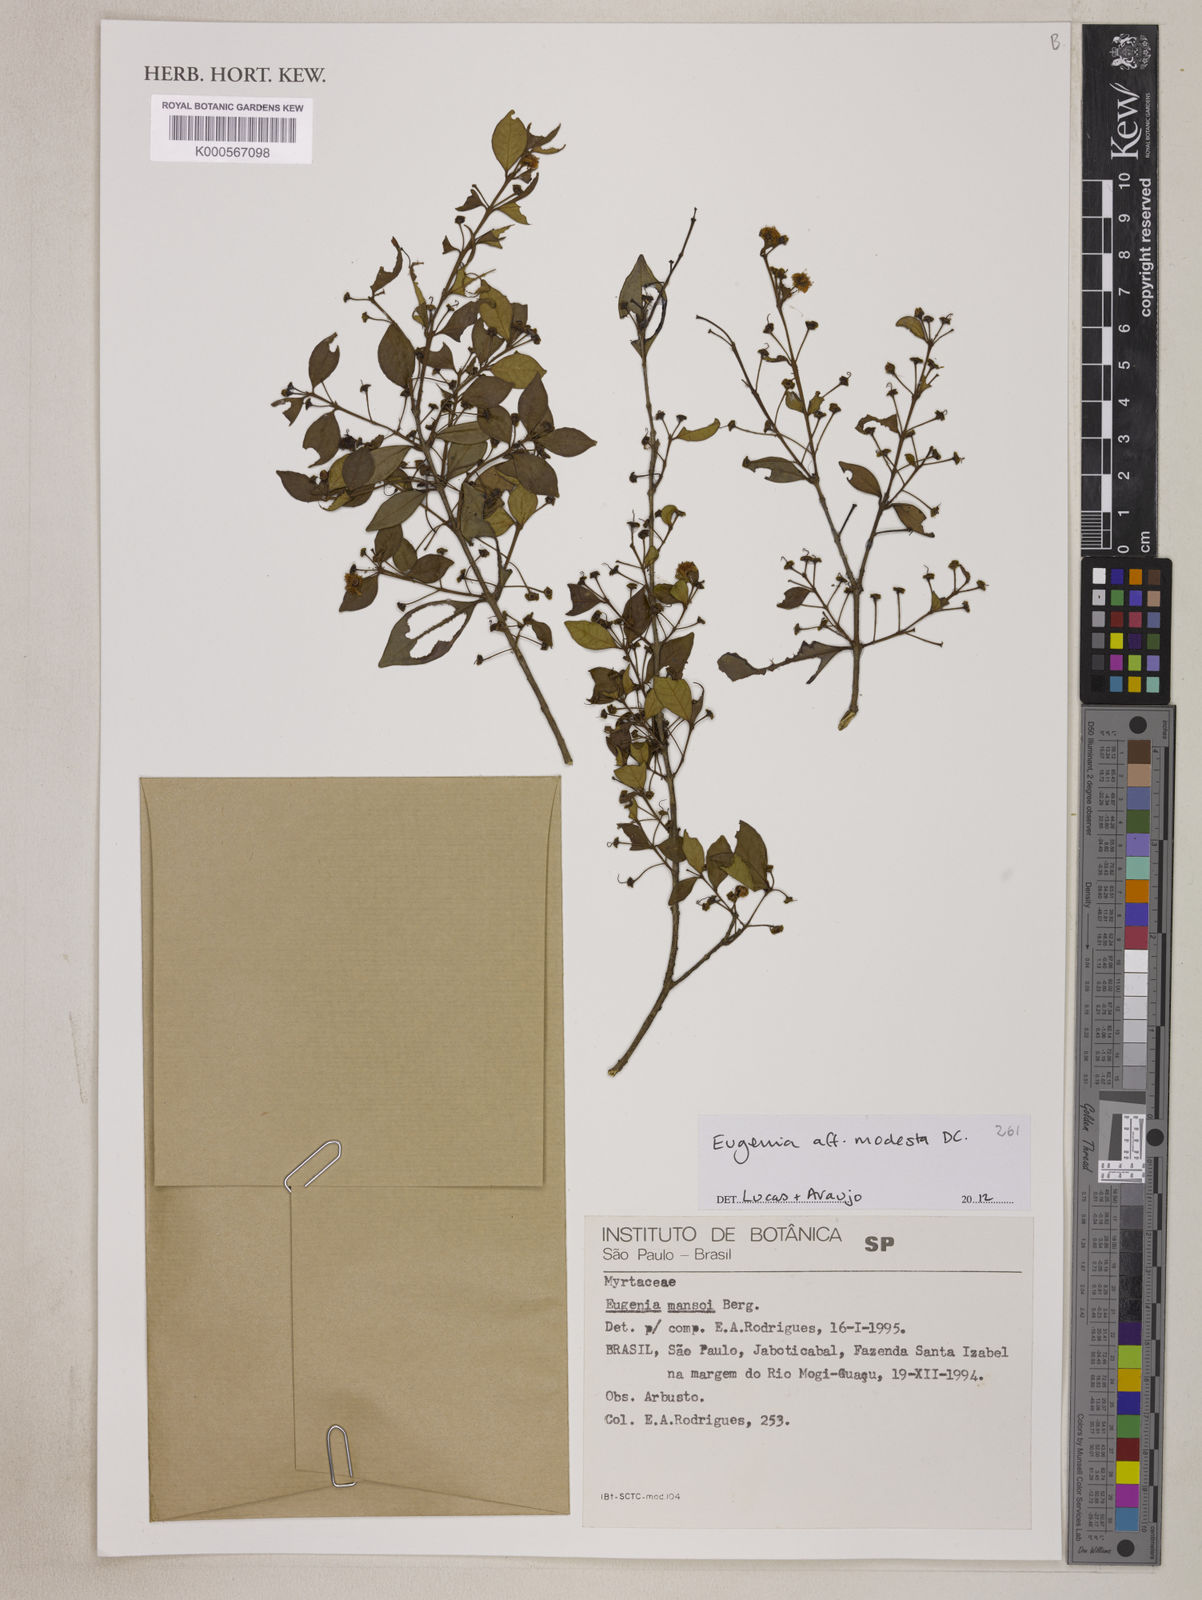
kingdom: Plantae
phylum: Tracheophyta
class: Magnoliopsida
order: Myrtales
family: Myrtaceae
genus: Eugenia
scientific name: Eugenia modesta
